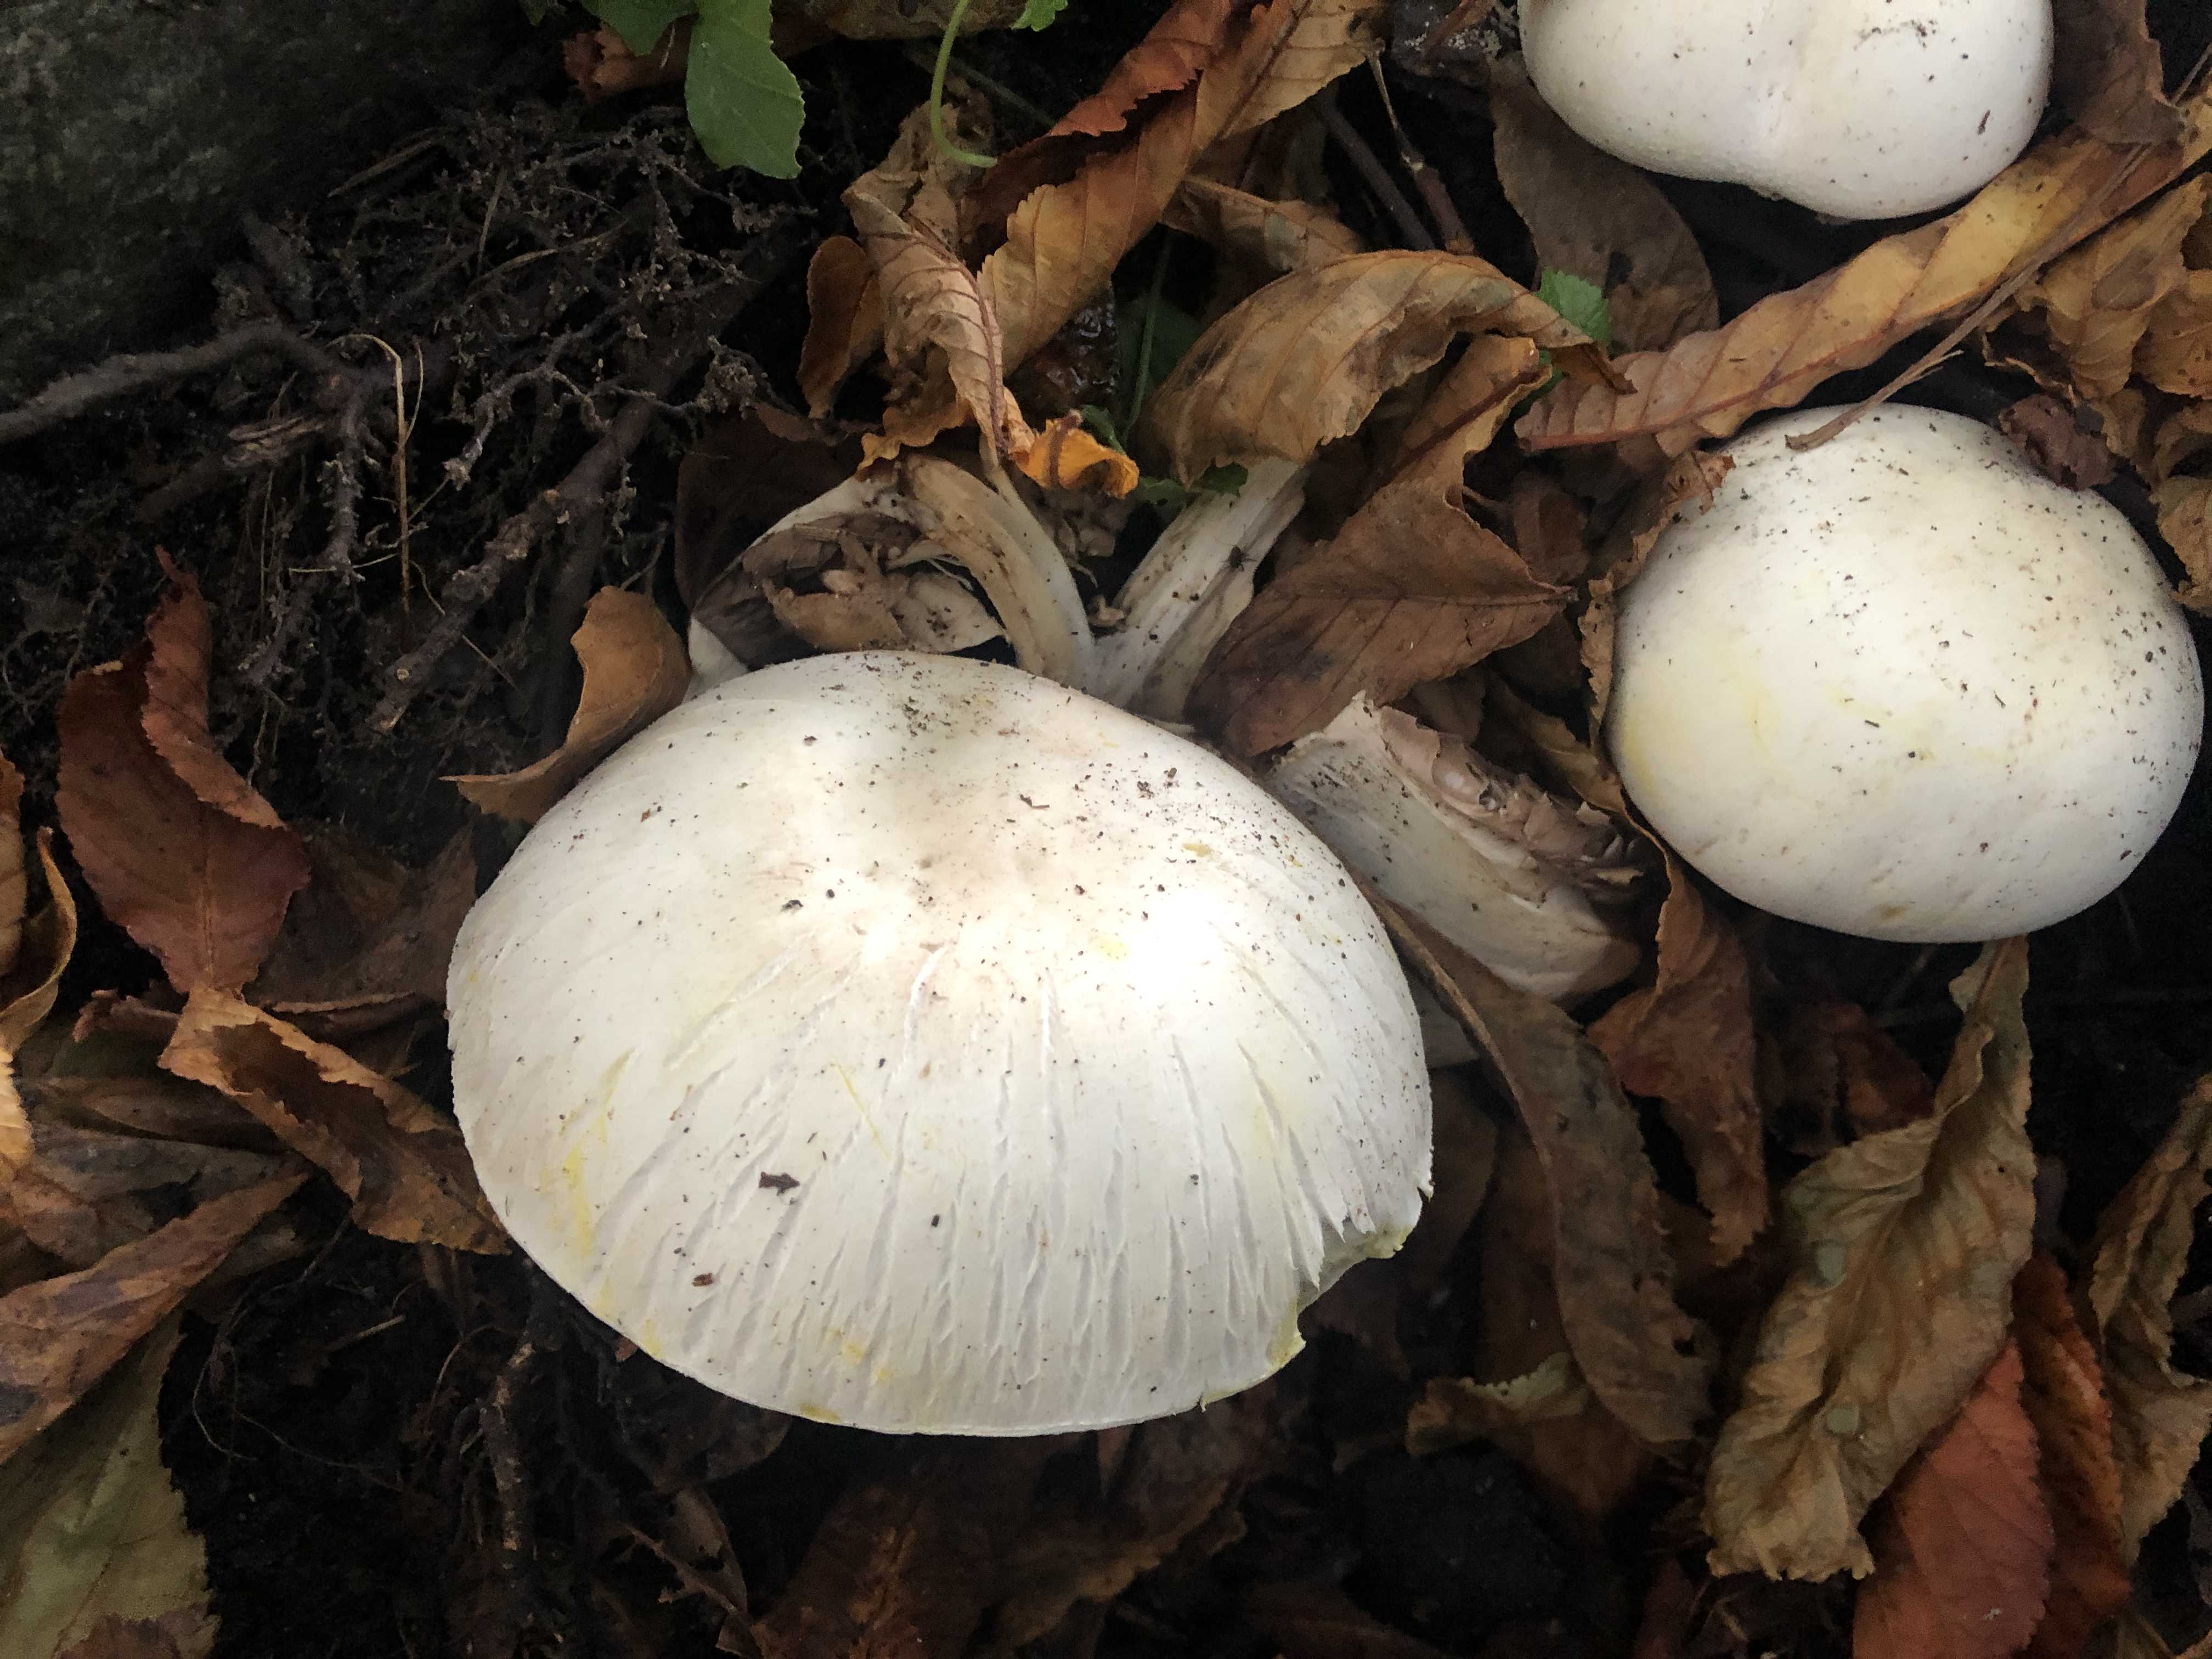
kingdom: Fungi
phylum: Basidiomycota
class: Agaricomycetes
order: Agaricales
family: Agaricaceae
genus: Agaricus
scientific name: Agaricus xanthodermus
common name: karbol-champignon
